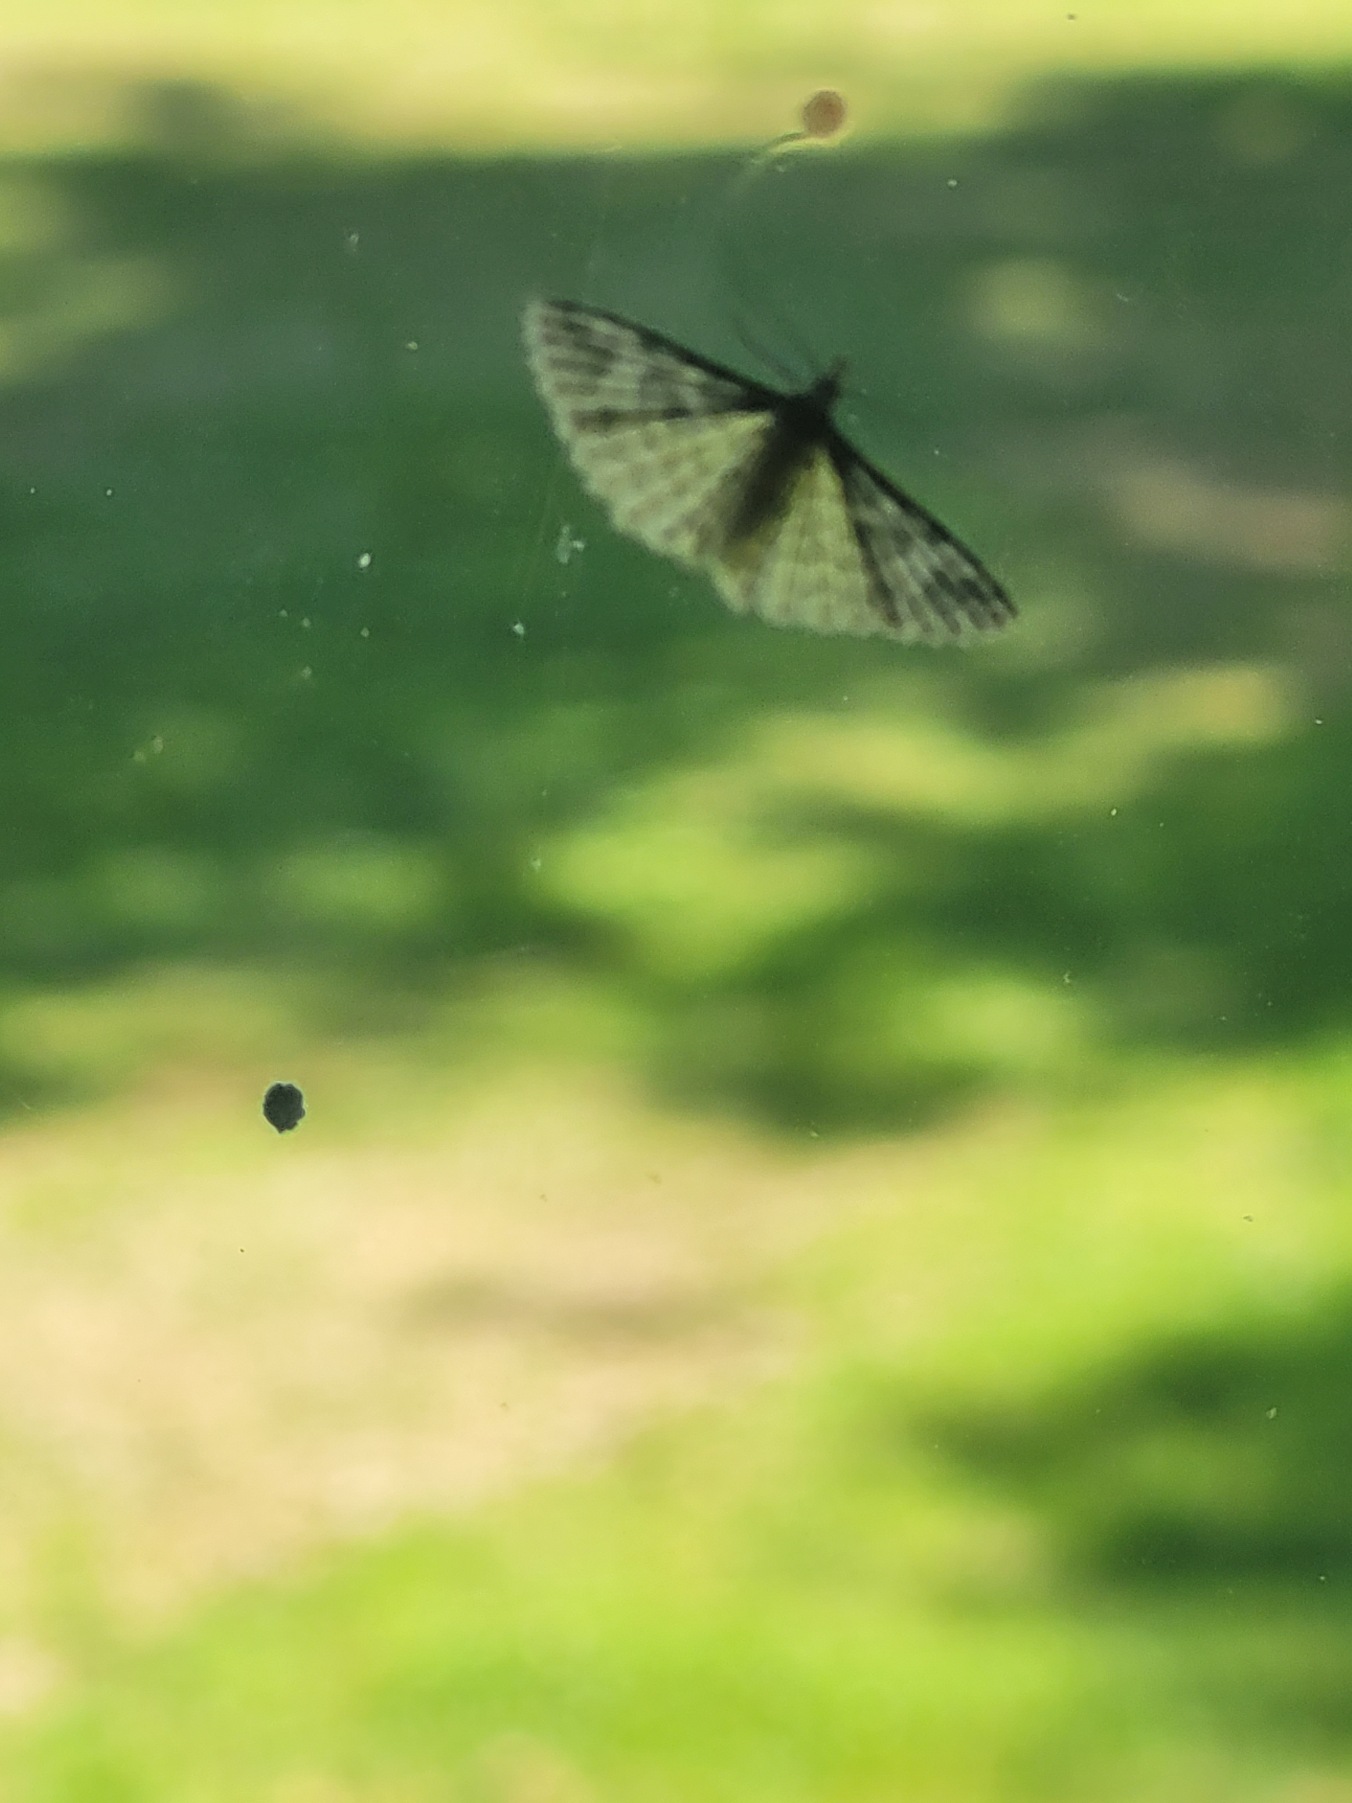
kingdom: Animalia
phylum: Arthropoda
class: Insecta
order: Lepidoptera
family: Alucitidae
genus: Alucita
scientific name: Alucita hexadactyla
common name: Kaprifoliefjermøl
